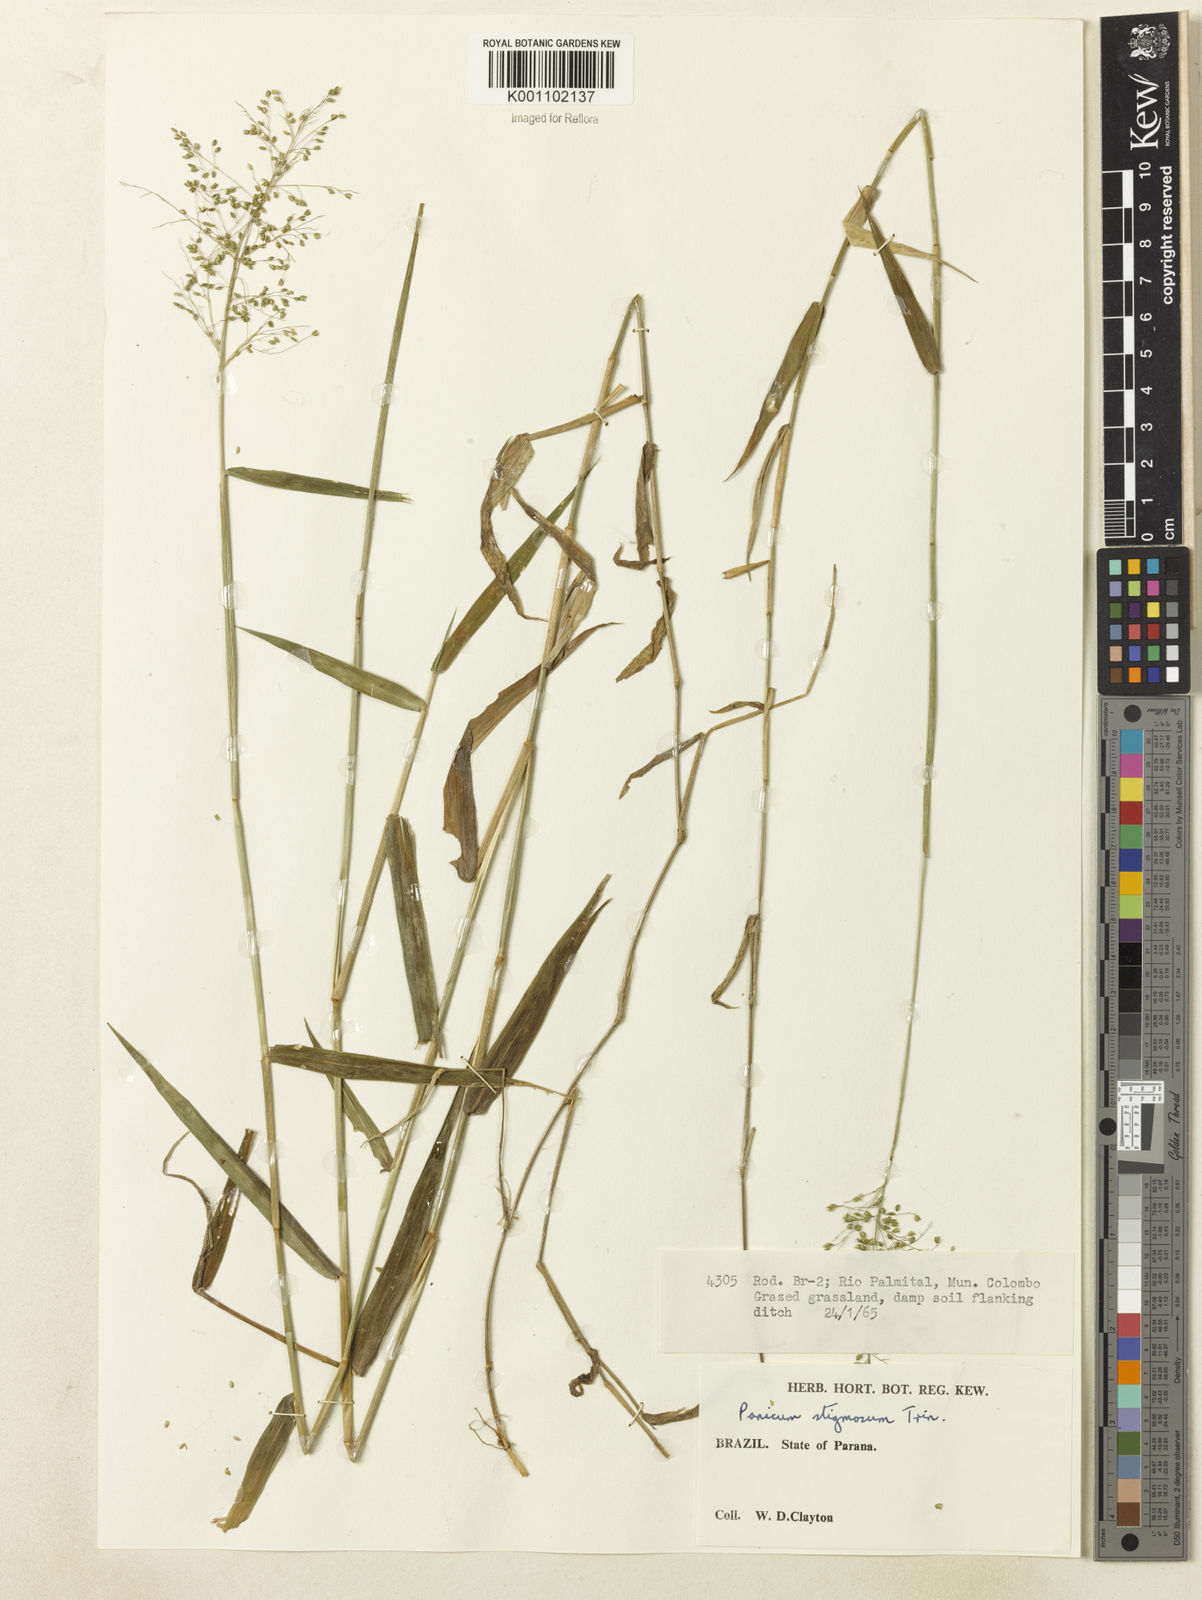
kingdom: Plantae
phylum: Tracheophyta
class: Liliopsida
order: Poales
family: Poaceae
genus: Dichanthelium
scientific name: Dichanthelium stigmosum
